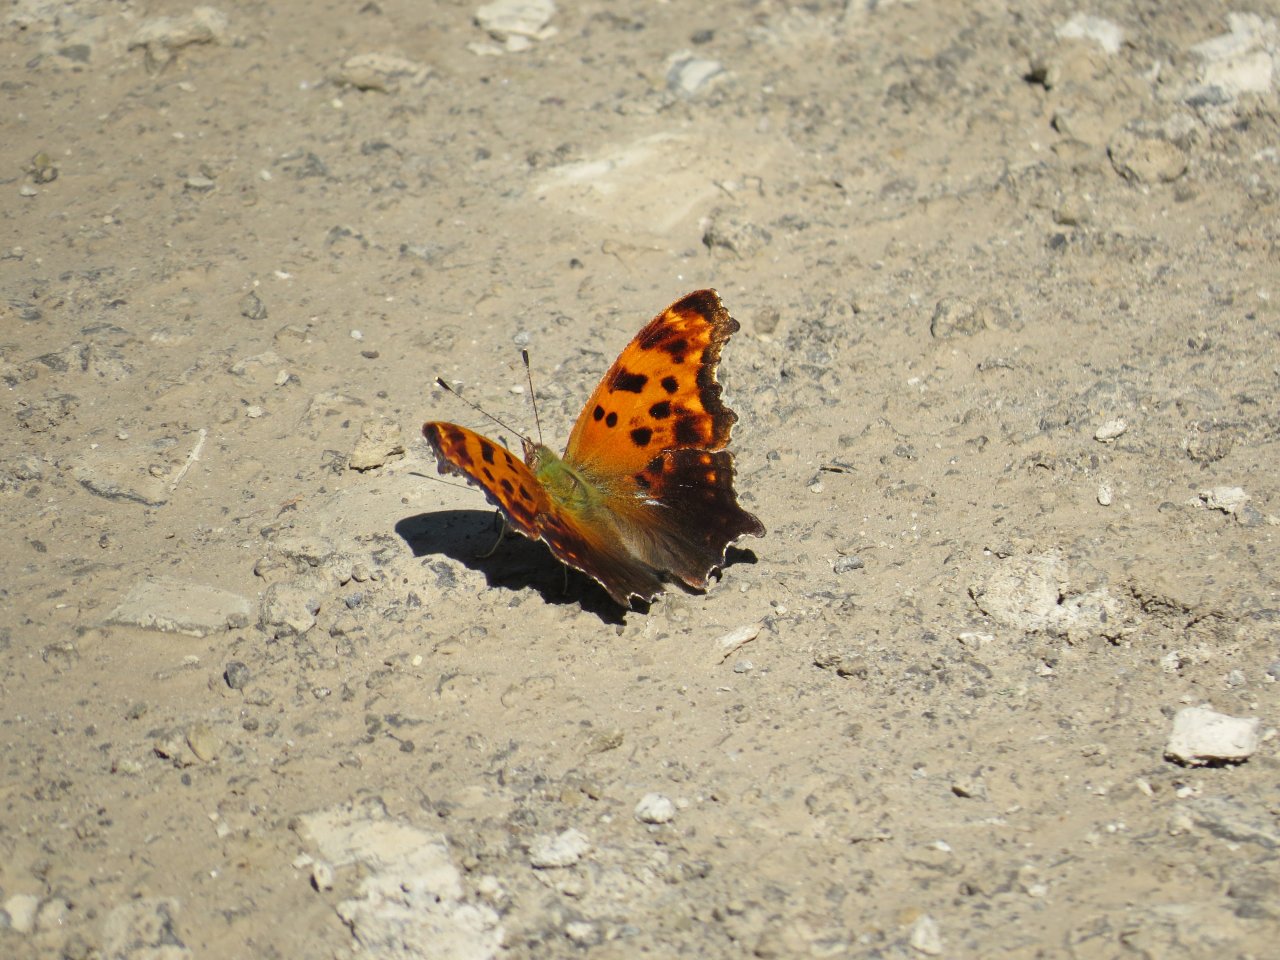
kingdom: Animalia
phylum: Arthropoda
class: Insecta
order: Lepidoptera
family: Nymphalidae
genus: Polygonia
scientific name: Polygonia comma
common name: Eastern Comma
